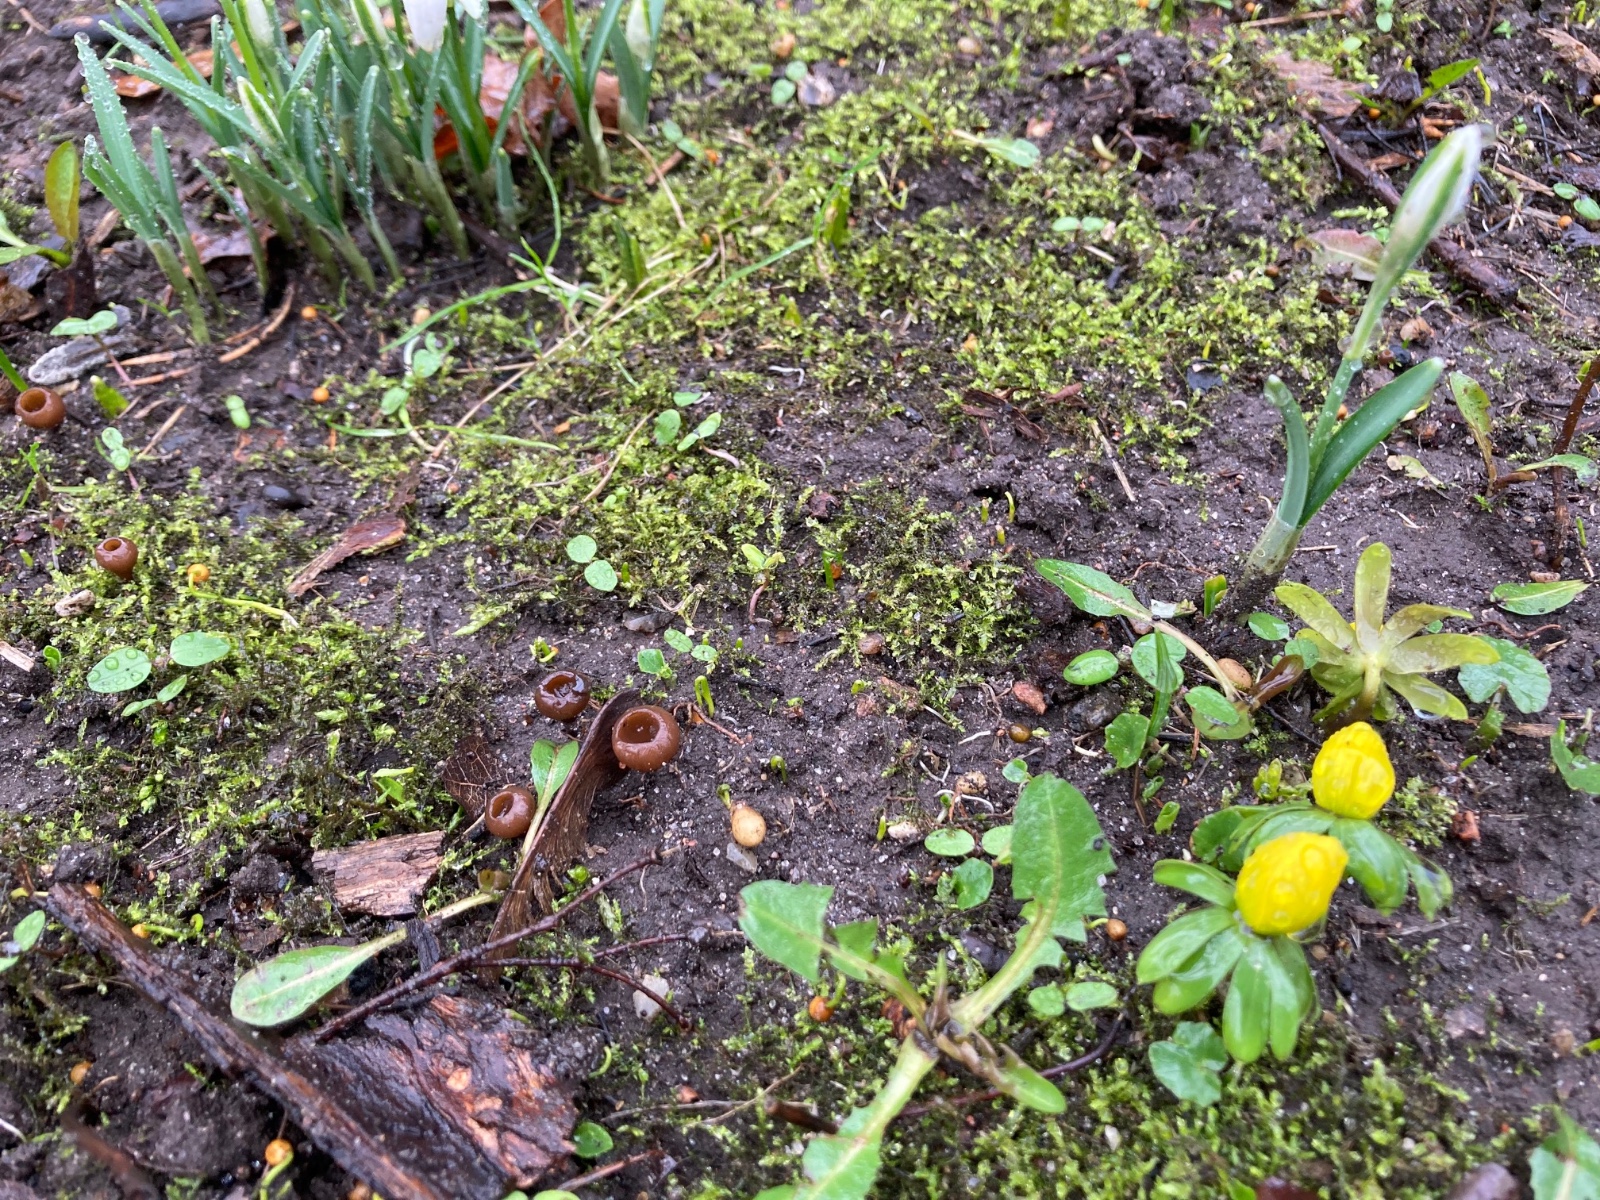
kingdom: Fungi
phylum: Ascomycota
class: Leotiomycetes
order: Helotiales
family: Sclerotiniaceae
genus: Dumontinia
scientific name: Dumontinia tuberosa
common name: anemone-knoldskive
